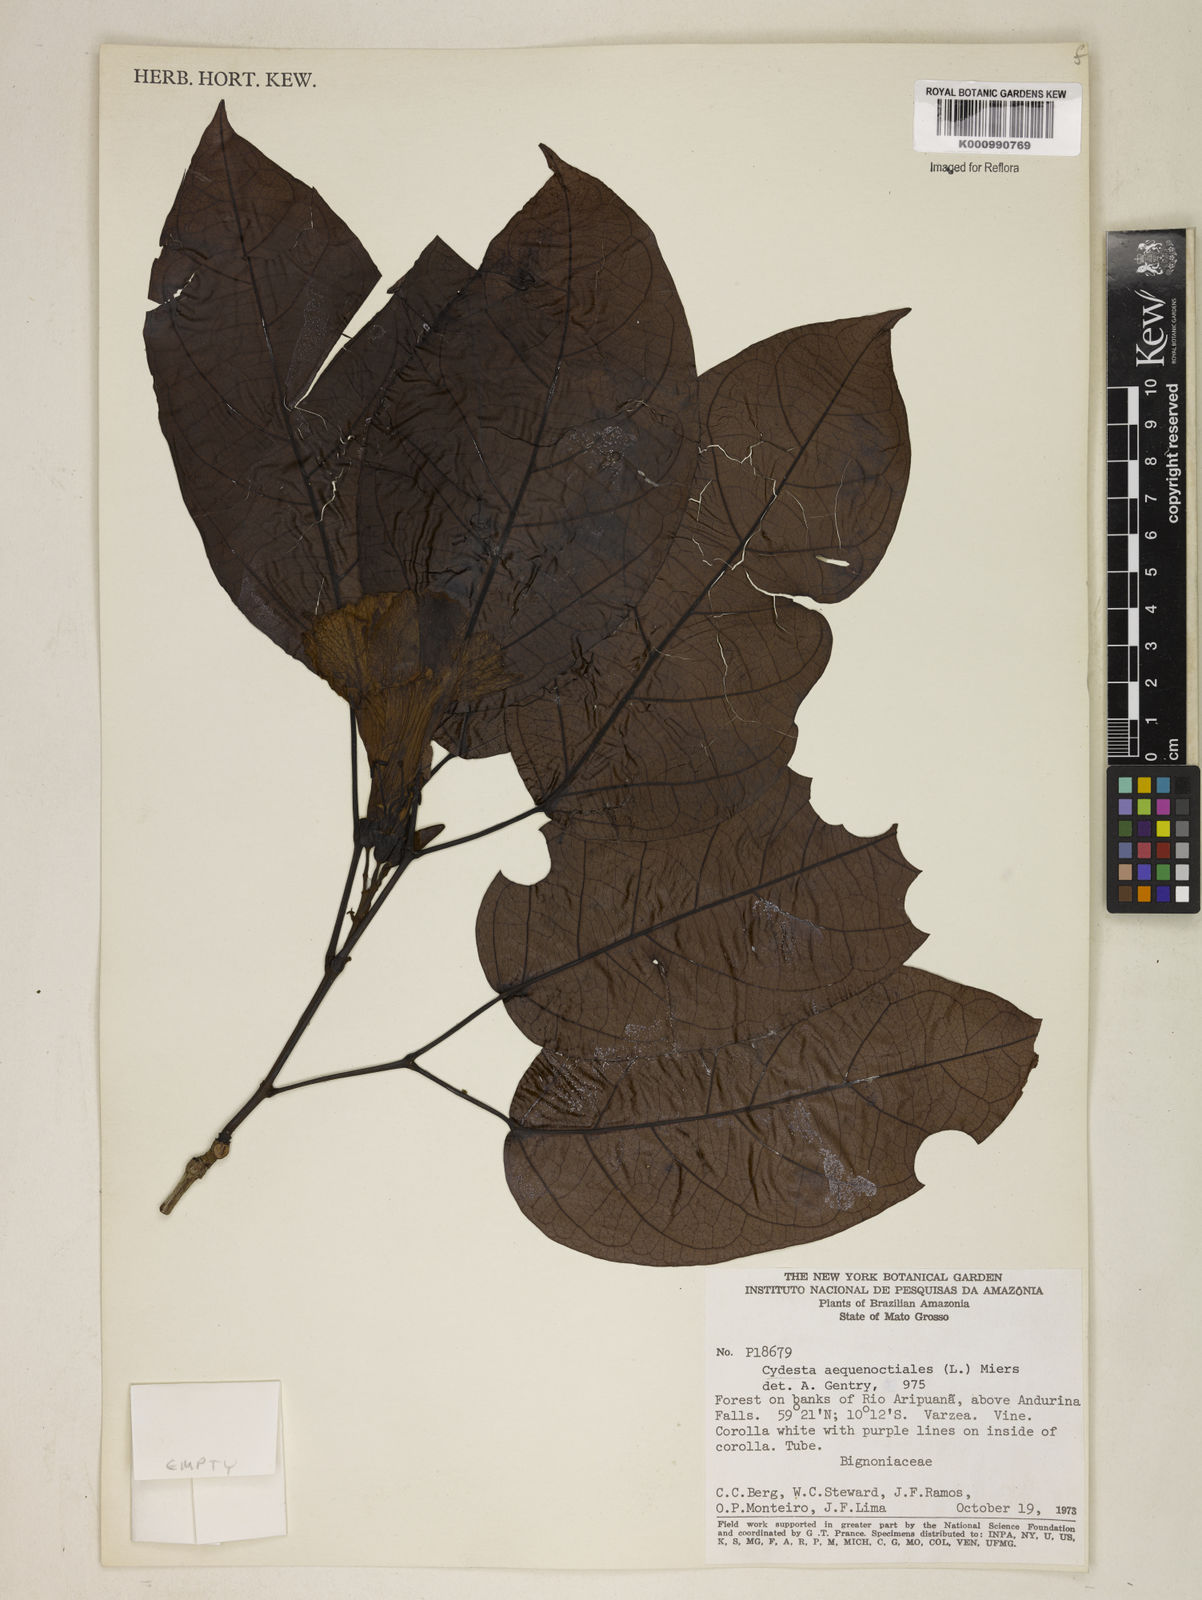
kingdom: Plantae
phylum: Tracheophyta
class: Magnoliopsida
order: Lamiales
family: Bignoniaceae
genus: Bignonia
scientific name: Bignonia aequinoctialis
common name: Garlicvine
